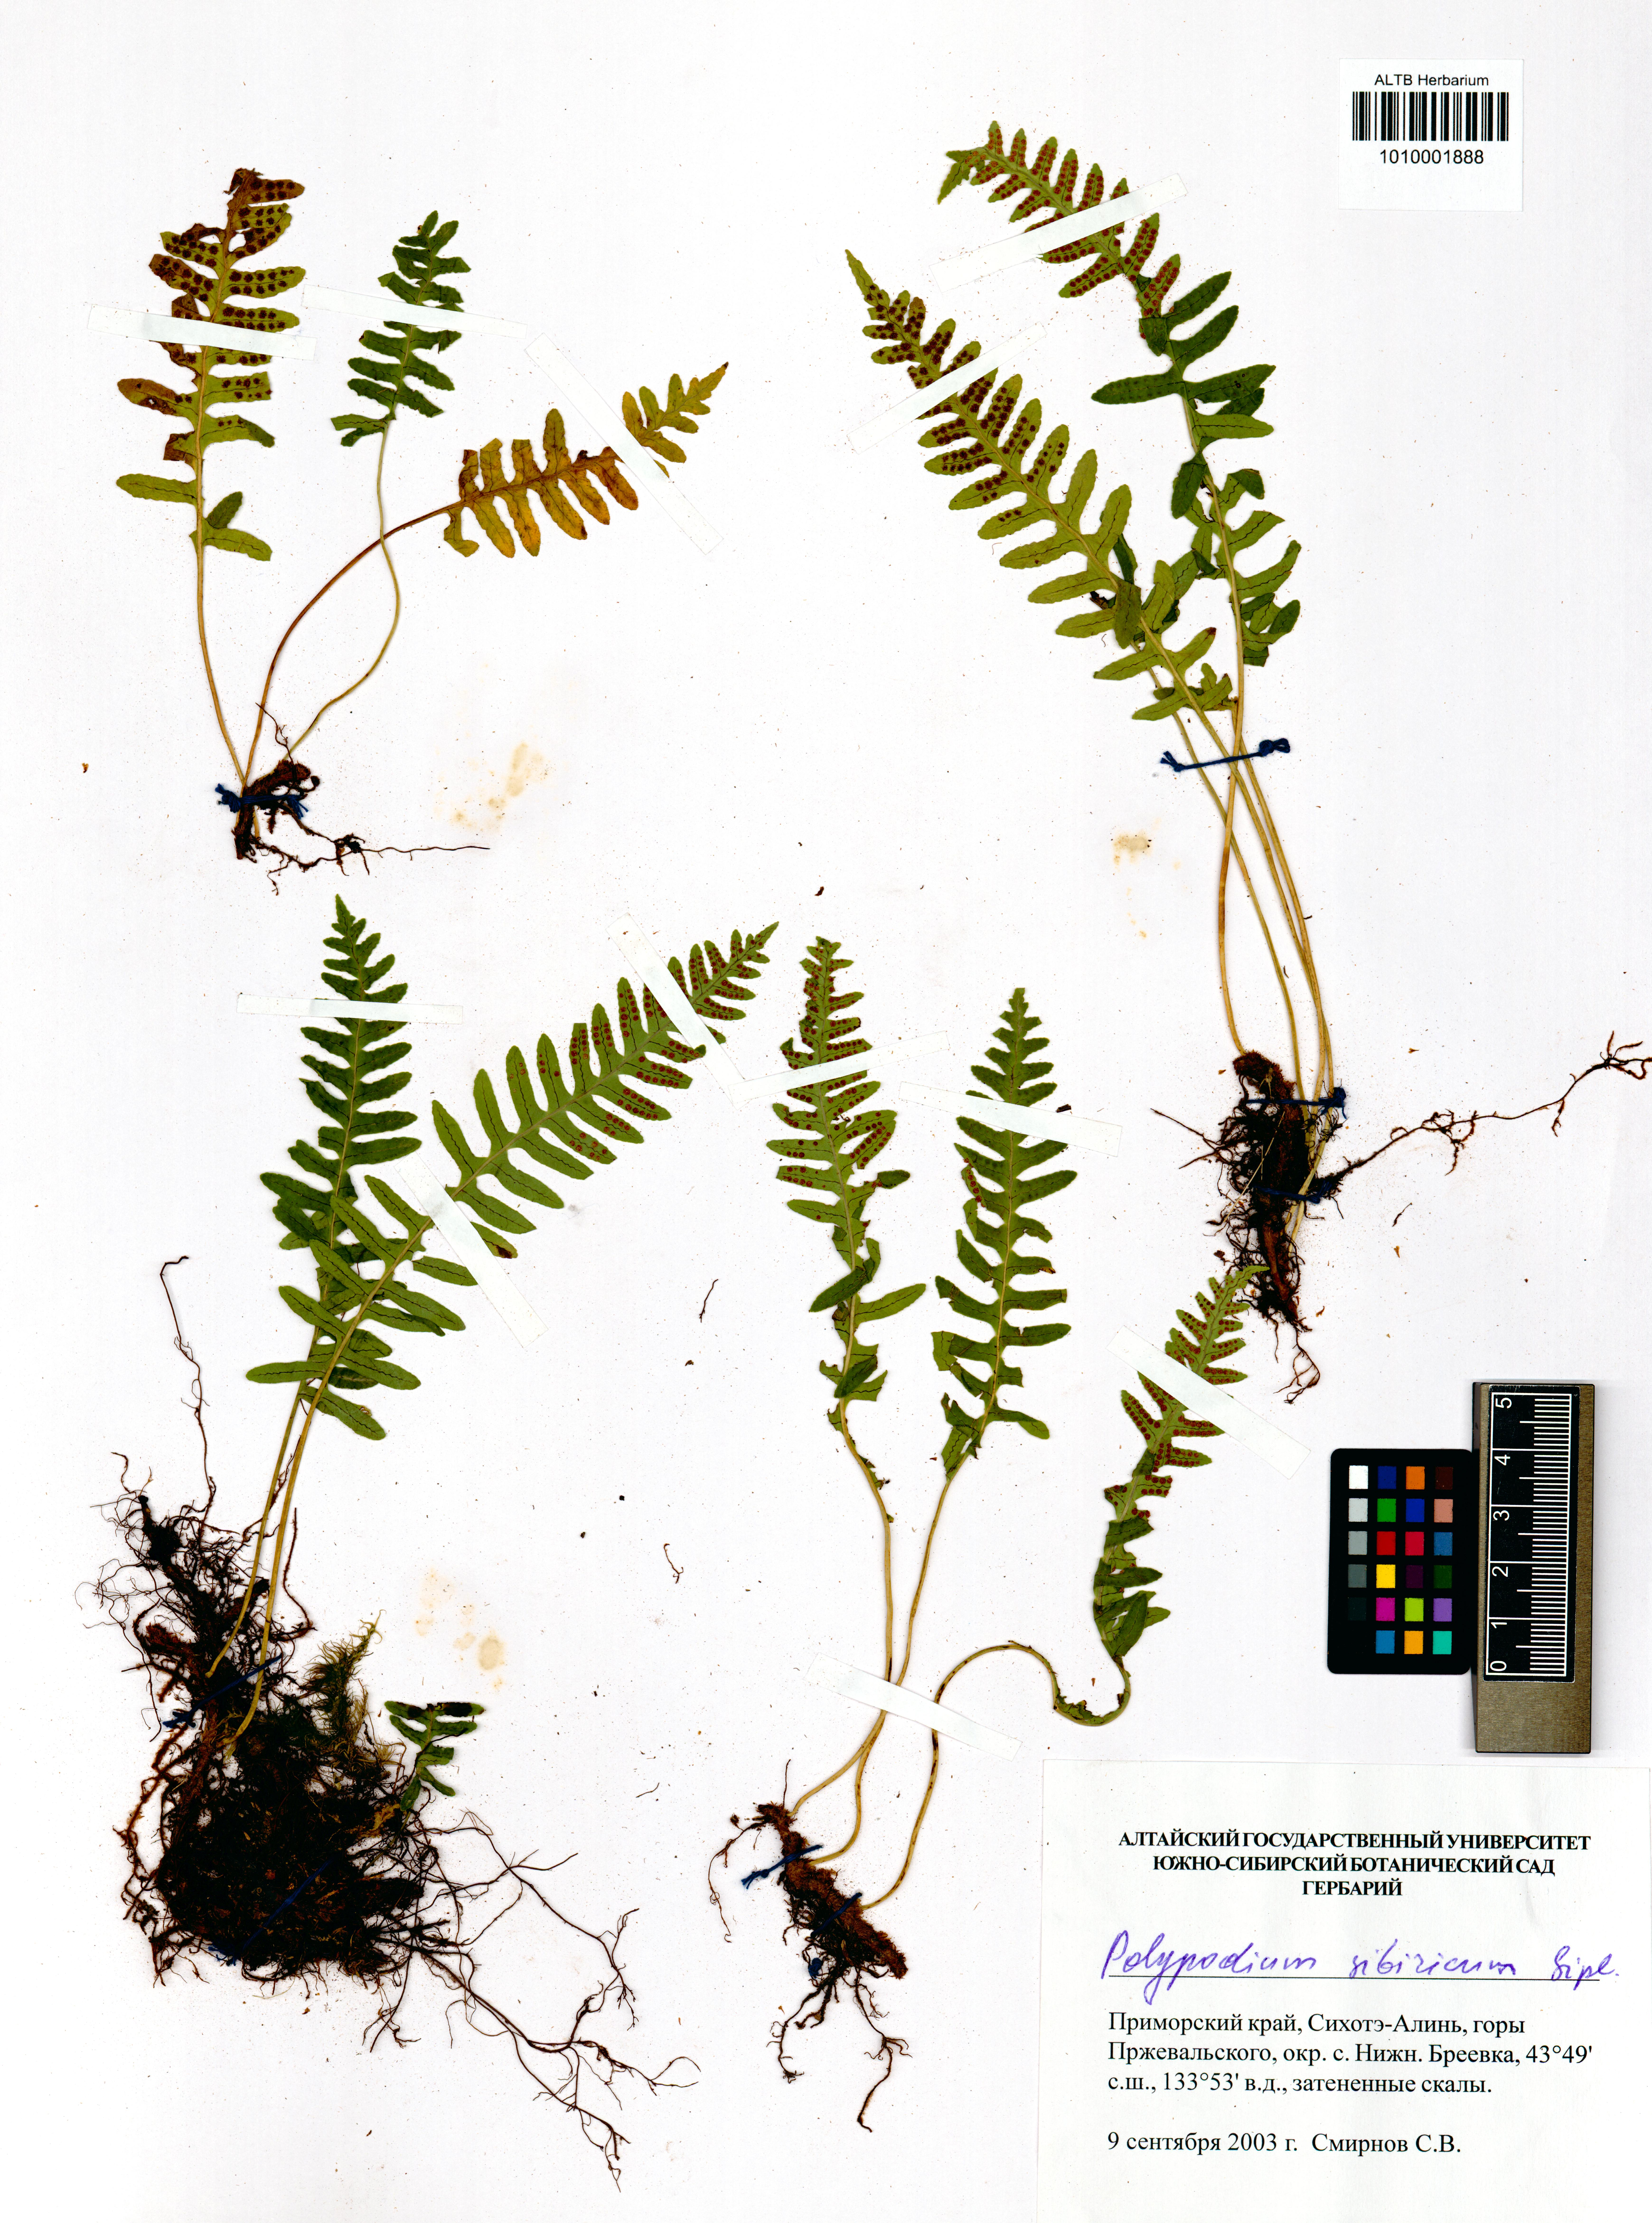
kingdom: Plantae
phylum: Tracheophyta
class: Polypodiopsida
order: Polypodiales
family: Polypodiaceae
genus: Polypodium
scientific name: Polypodium sibiricum
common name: Siberian polypody
